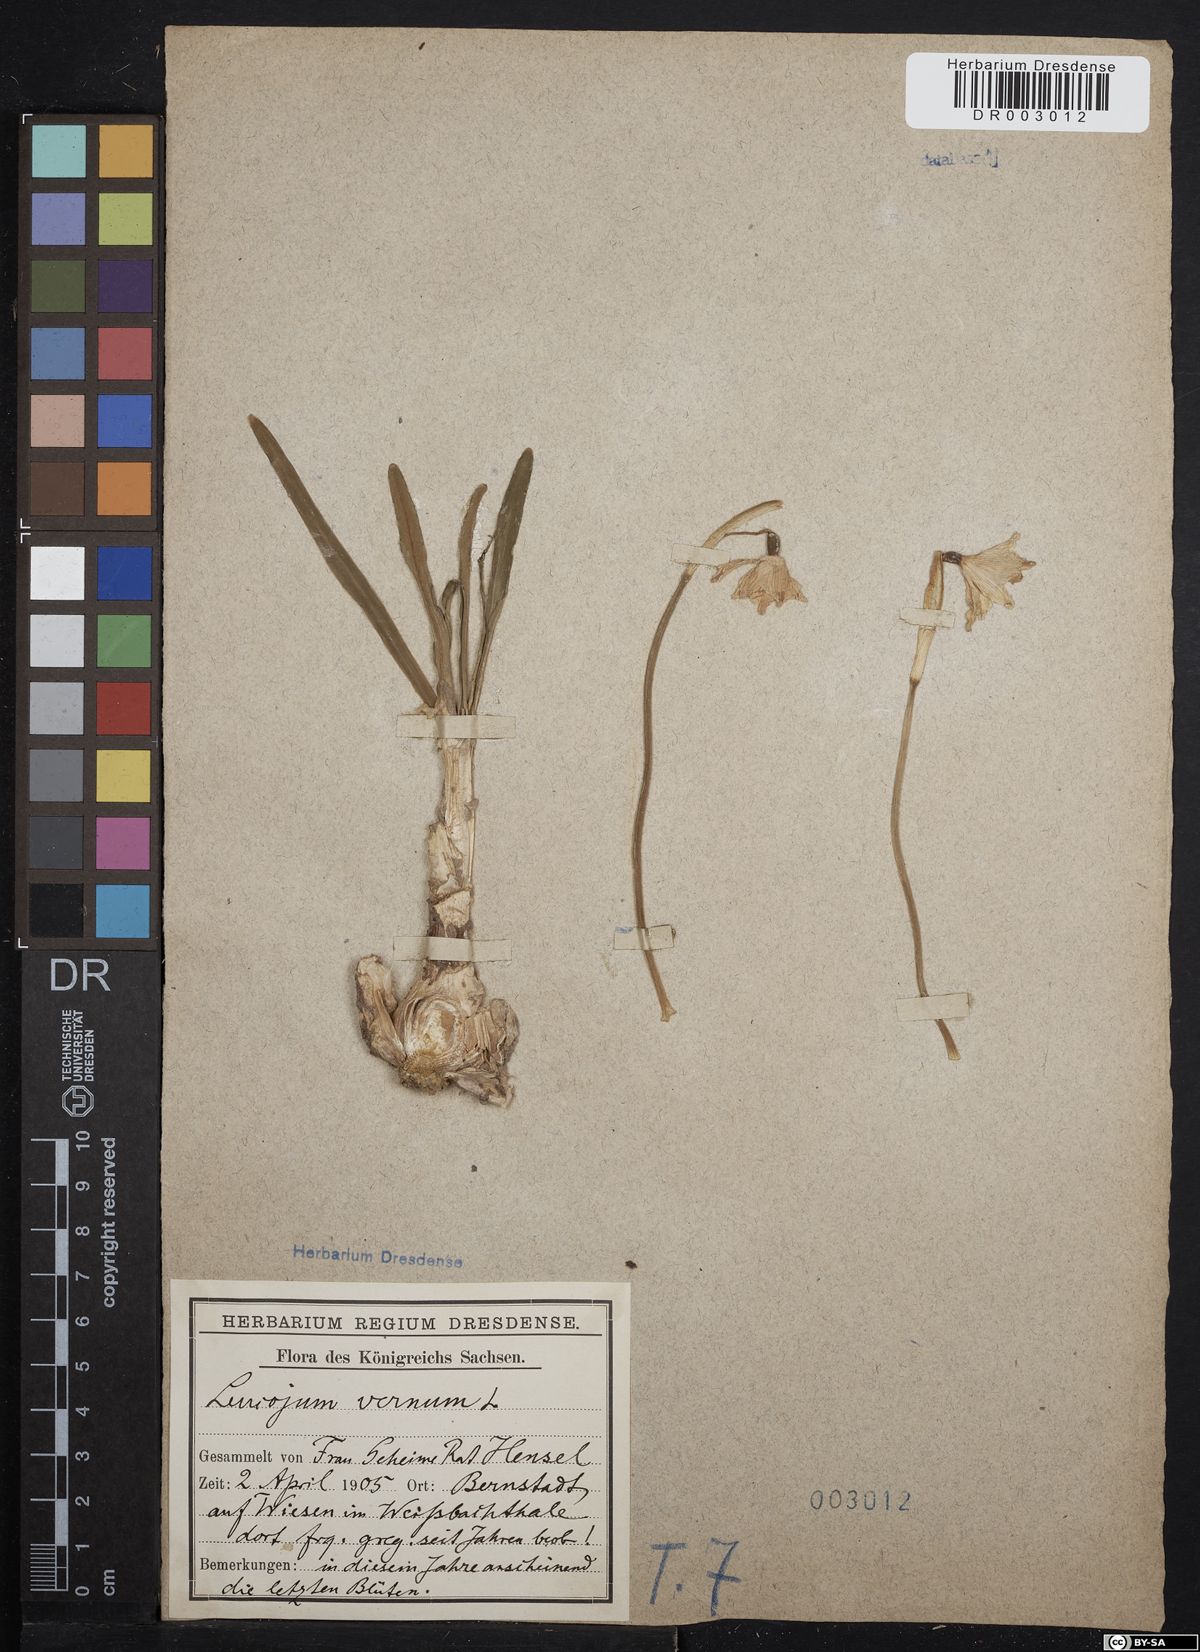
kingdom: Plantae
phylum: Tracheophyta
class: Liliopsida
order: Asparagales
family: Amaryllidaceae
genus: Leucojum
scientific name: Leucojum vernum
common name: Spring snowflake
